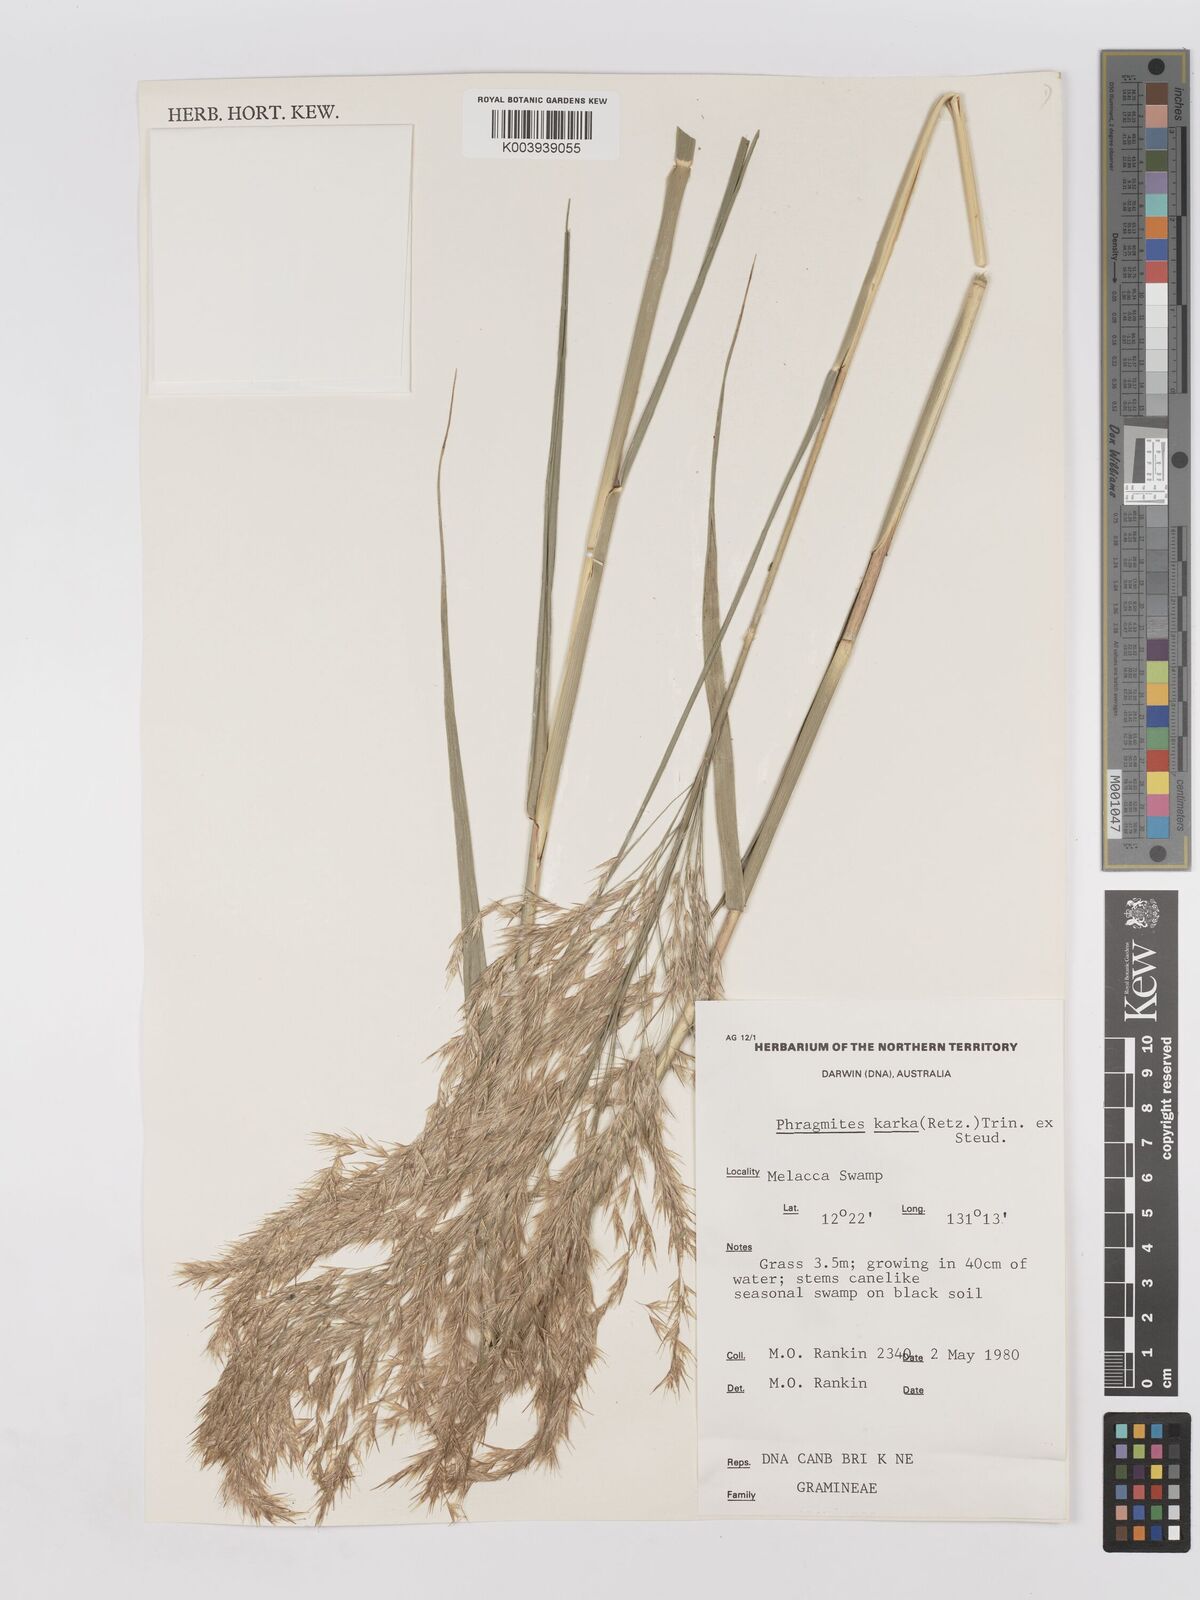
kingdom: Plantae
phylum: Tracheophyta
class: Liliopsida
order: Poales
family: Poaceae
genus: Phragmites
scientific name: Phragmites karka
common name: Tropical reed
